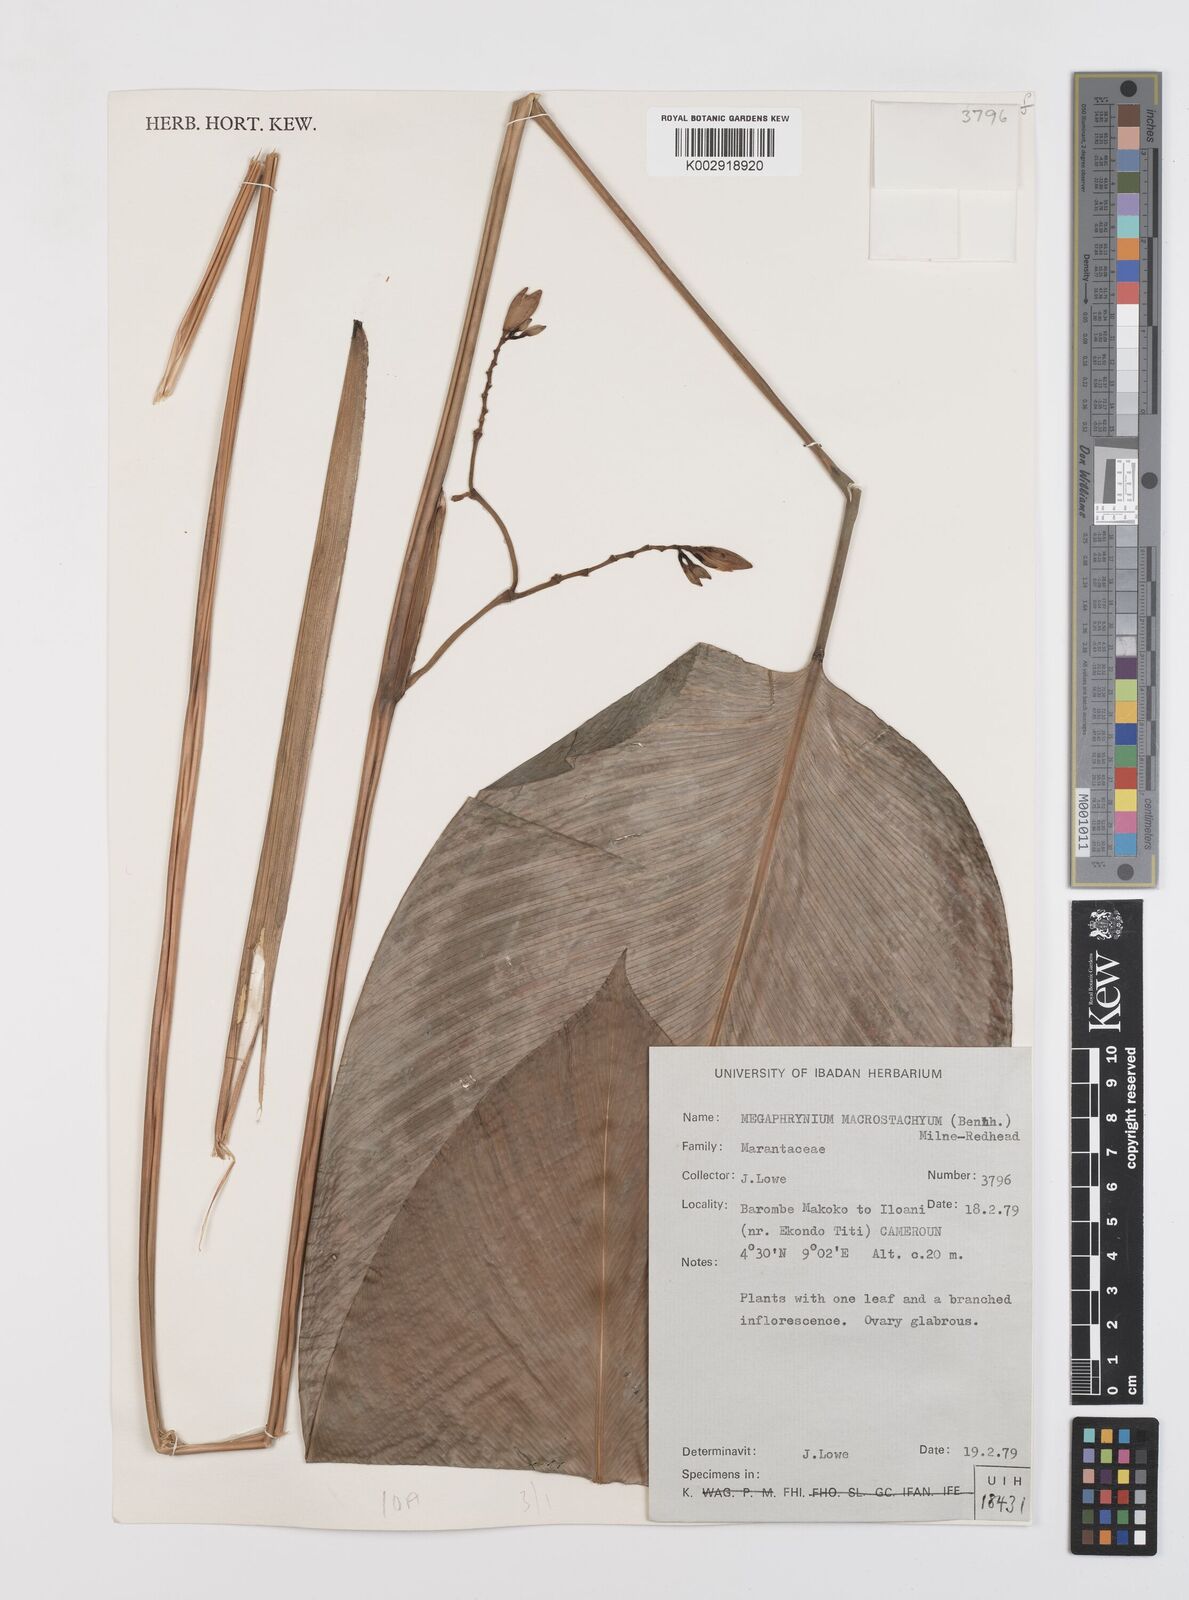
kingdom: Plantae
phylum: Tracheophyta
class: Liliopsida
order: Zingiberales
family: Marantaceae
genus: Megaphrynium
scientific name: Megaphrynium macrostachyum
